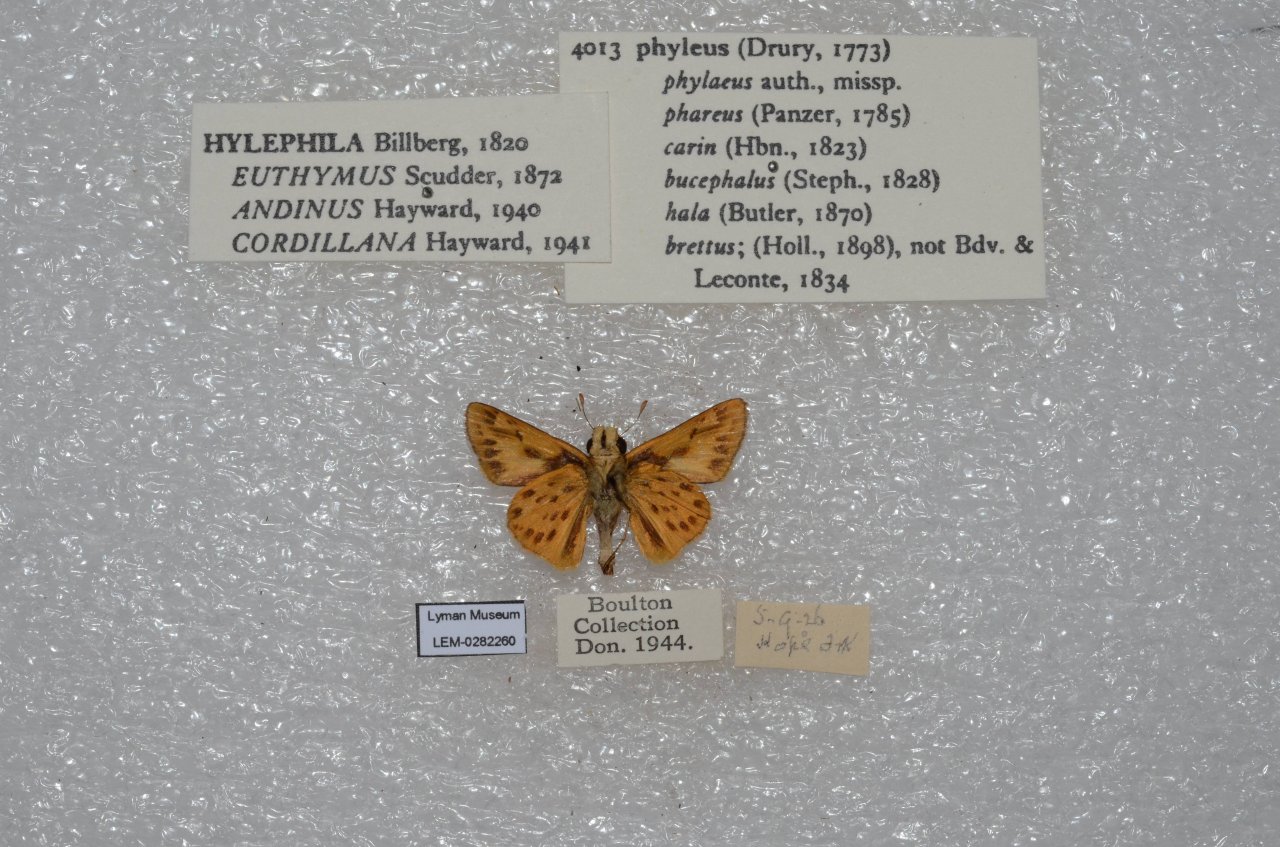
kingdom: Animalia
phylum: Arthropoda
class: Insecta
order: Lepidoptera
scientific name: Lepidoptera
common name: Butterflies
